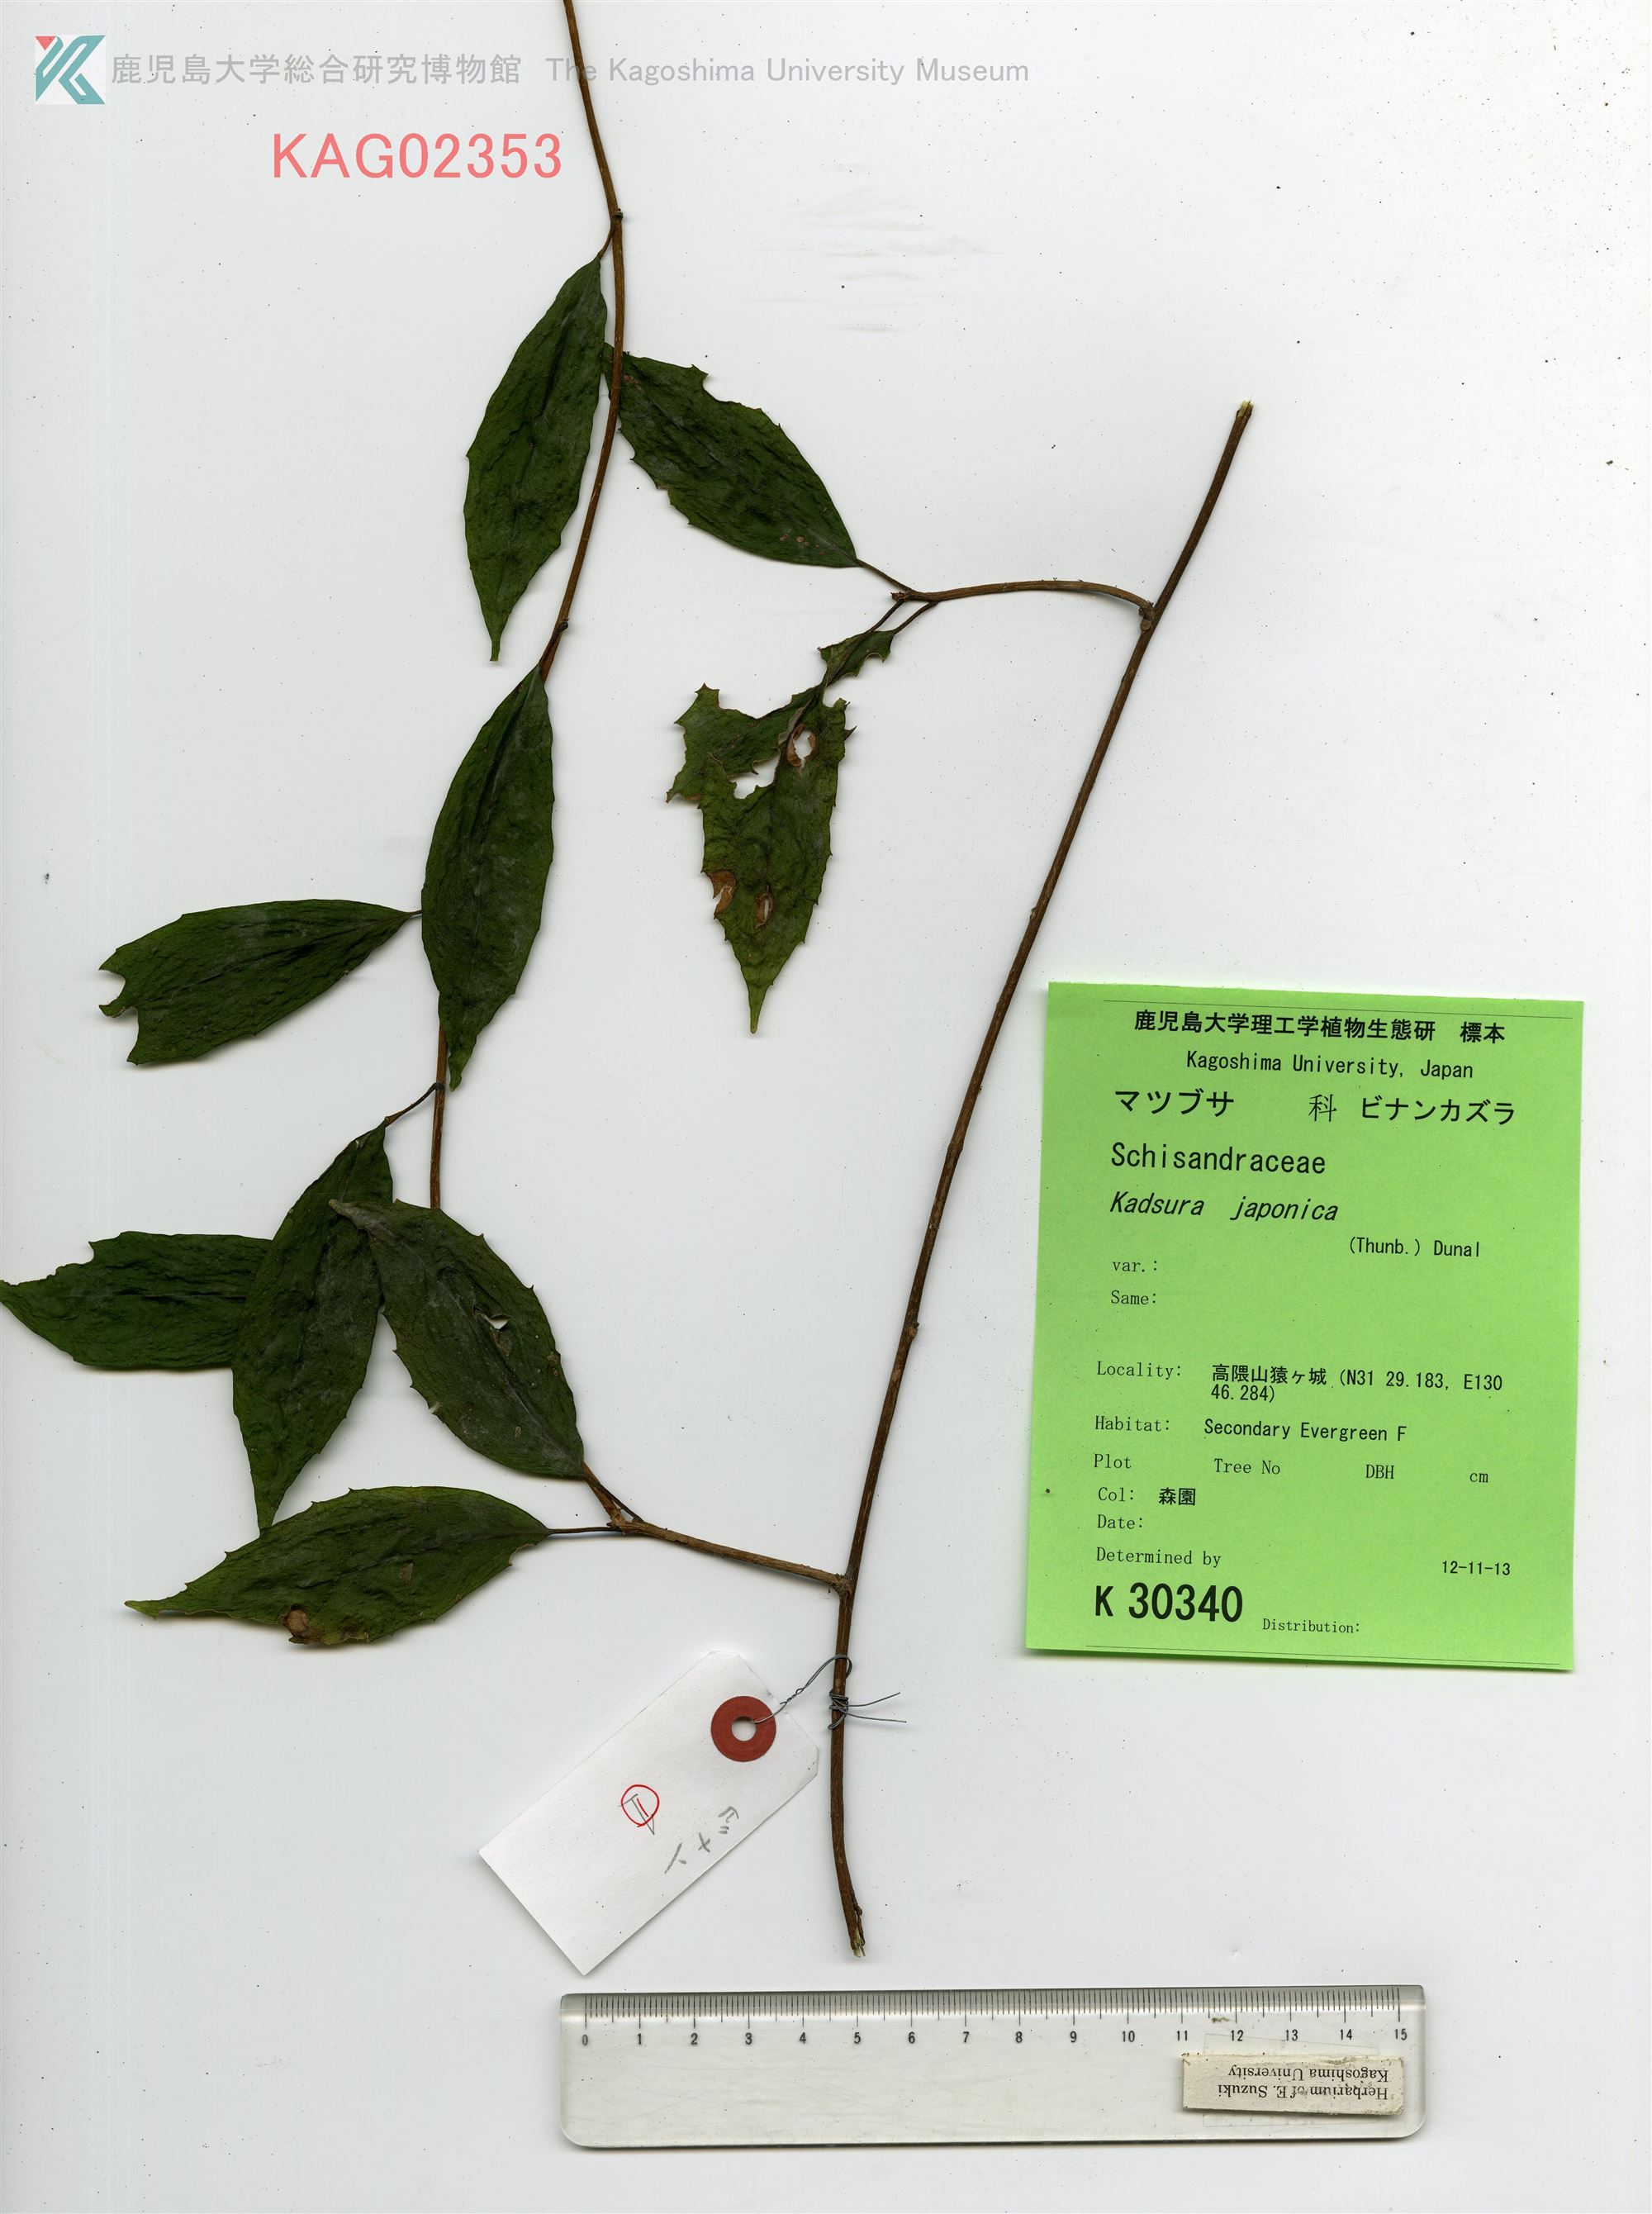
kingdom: Plantae
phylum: Tracheophyta
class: Magnoliopsida
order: Austrobaileyales
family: Schisandraceae
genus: Kadsura
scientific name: Kadsura japonica
